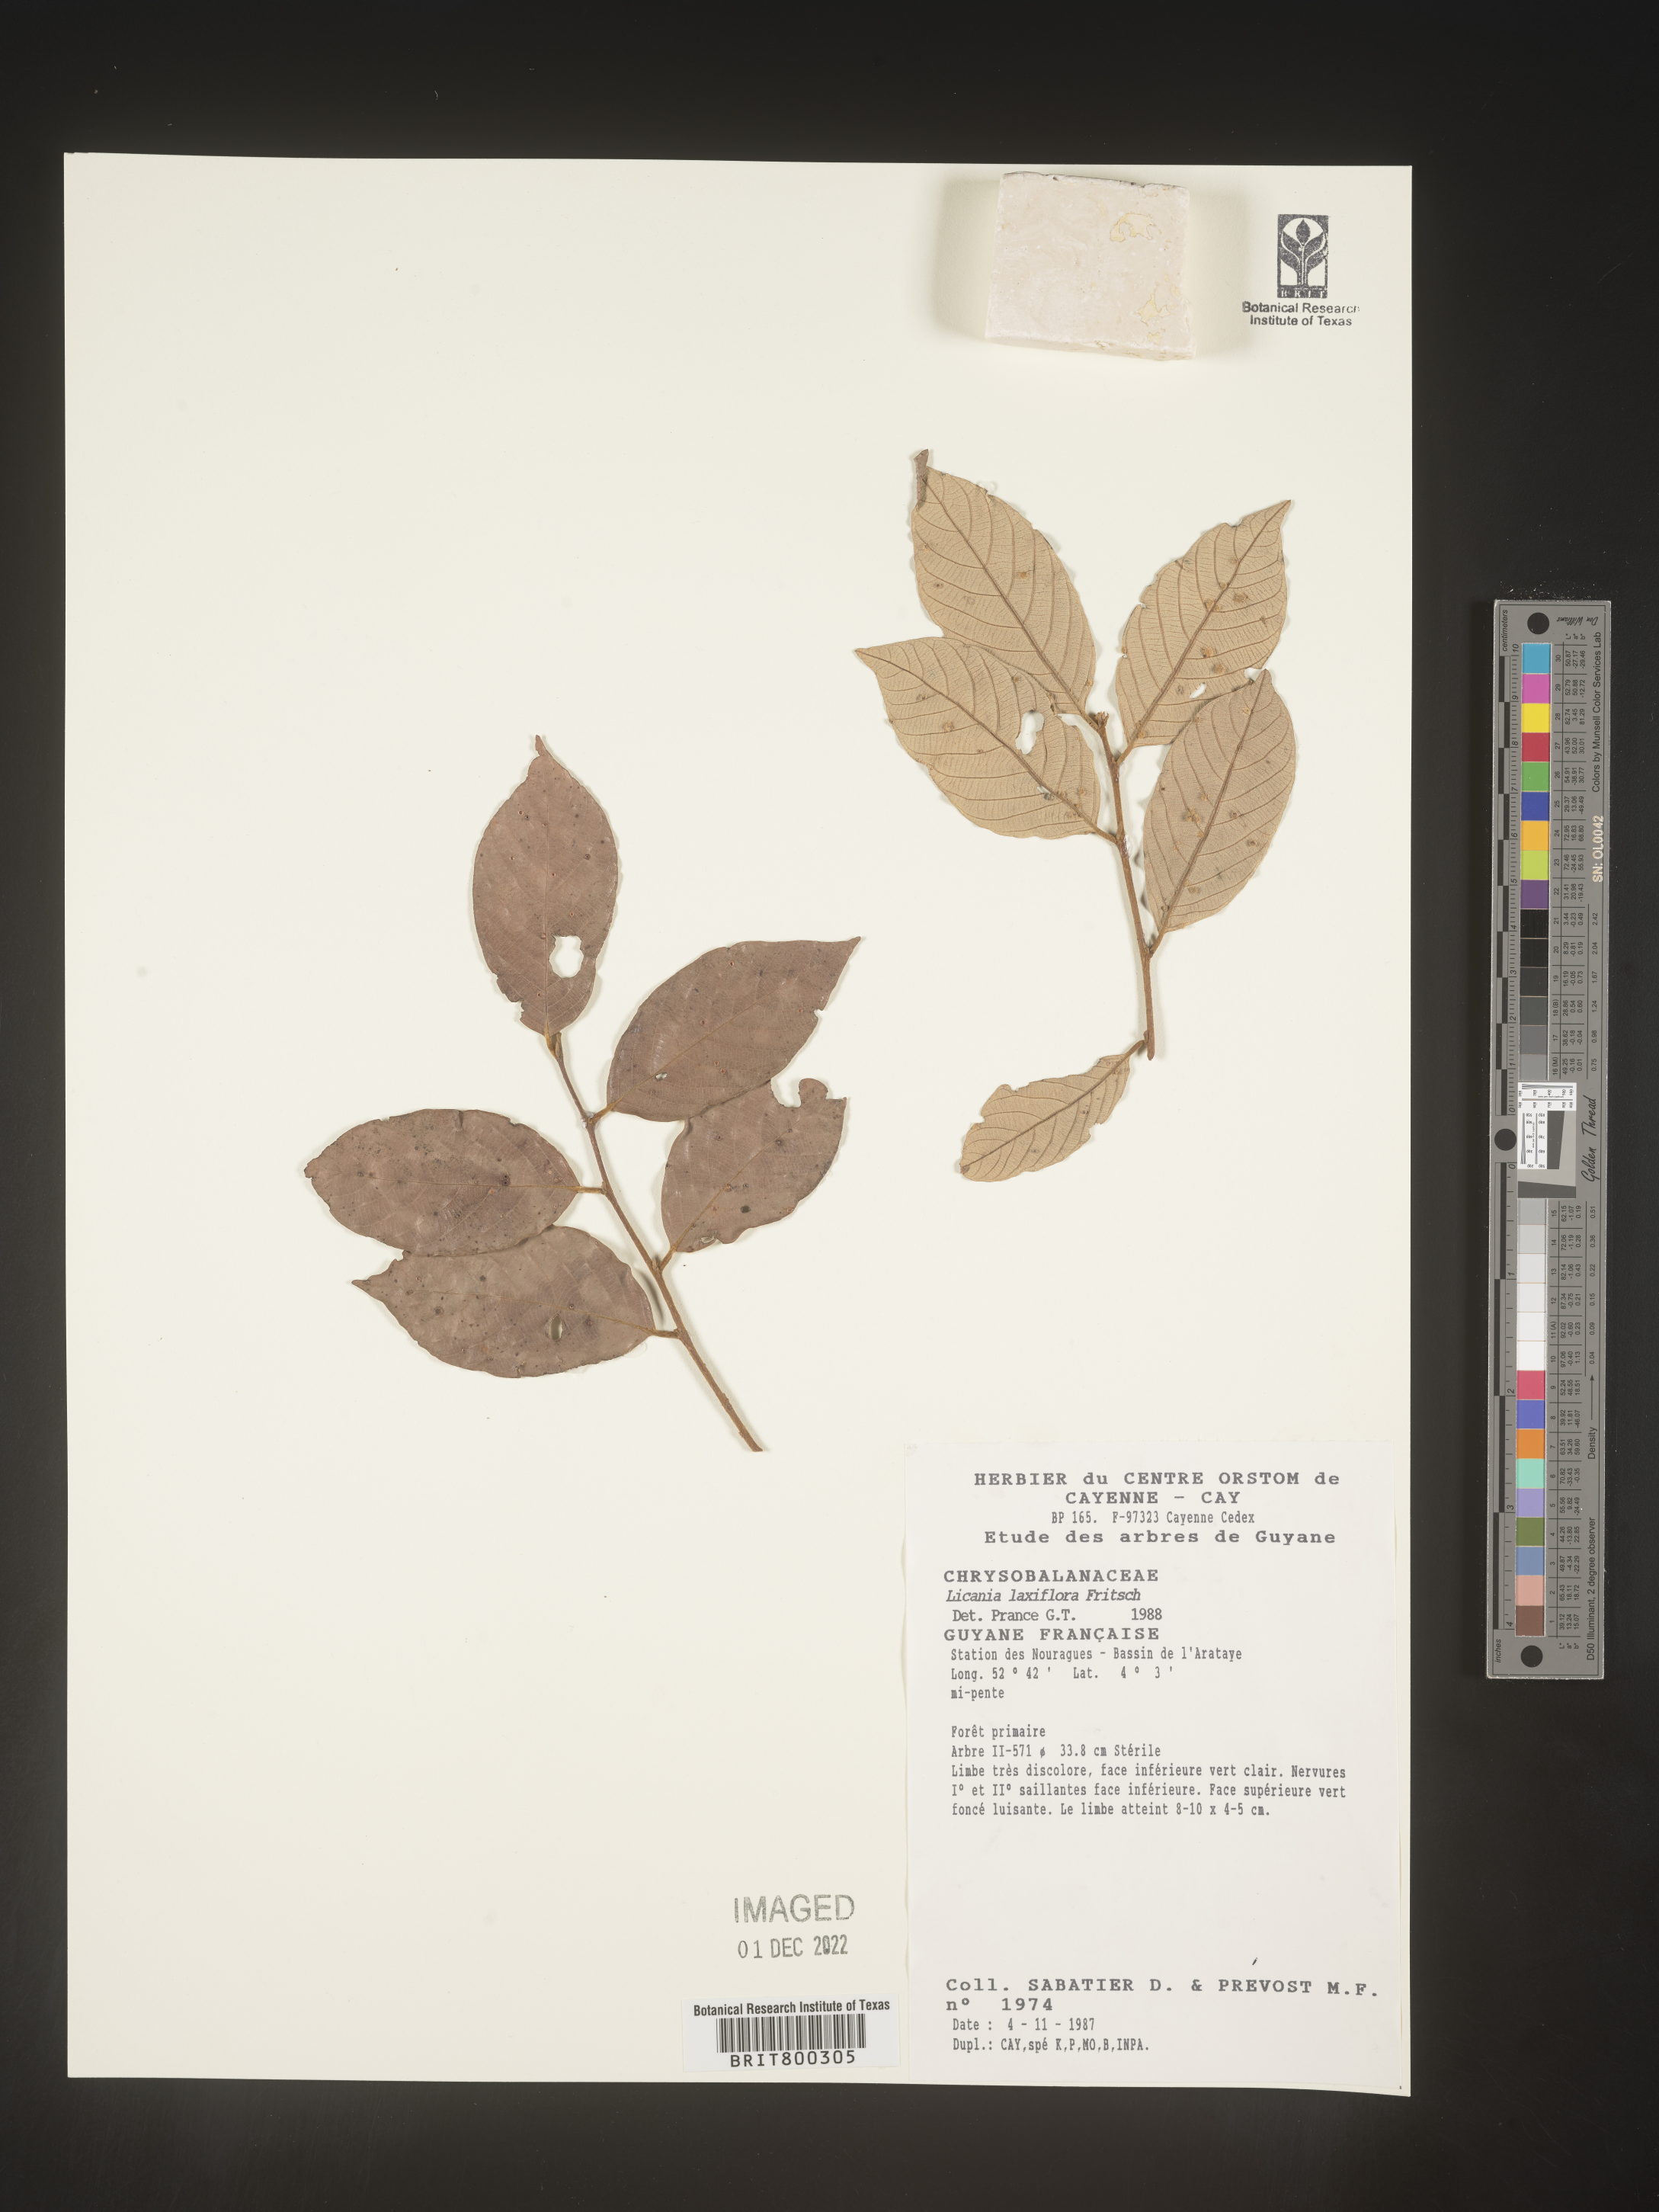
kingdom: Plantae
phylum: Tracheophyta
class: Magnoliopsida
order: Malpighiales
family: Chrysobalanaceae
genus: Licania
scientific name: Licania
